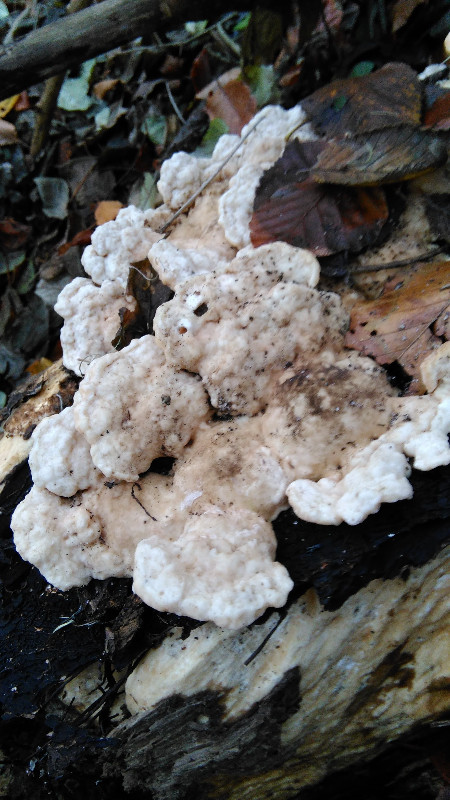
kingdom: Fungi
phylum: Basidiomycota
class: Agaricomycetes
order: Polyporales
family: Polyporaceae
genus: Trametes
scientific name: Trametes gibbosa
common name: puklet læderporesvamp
